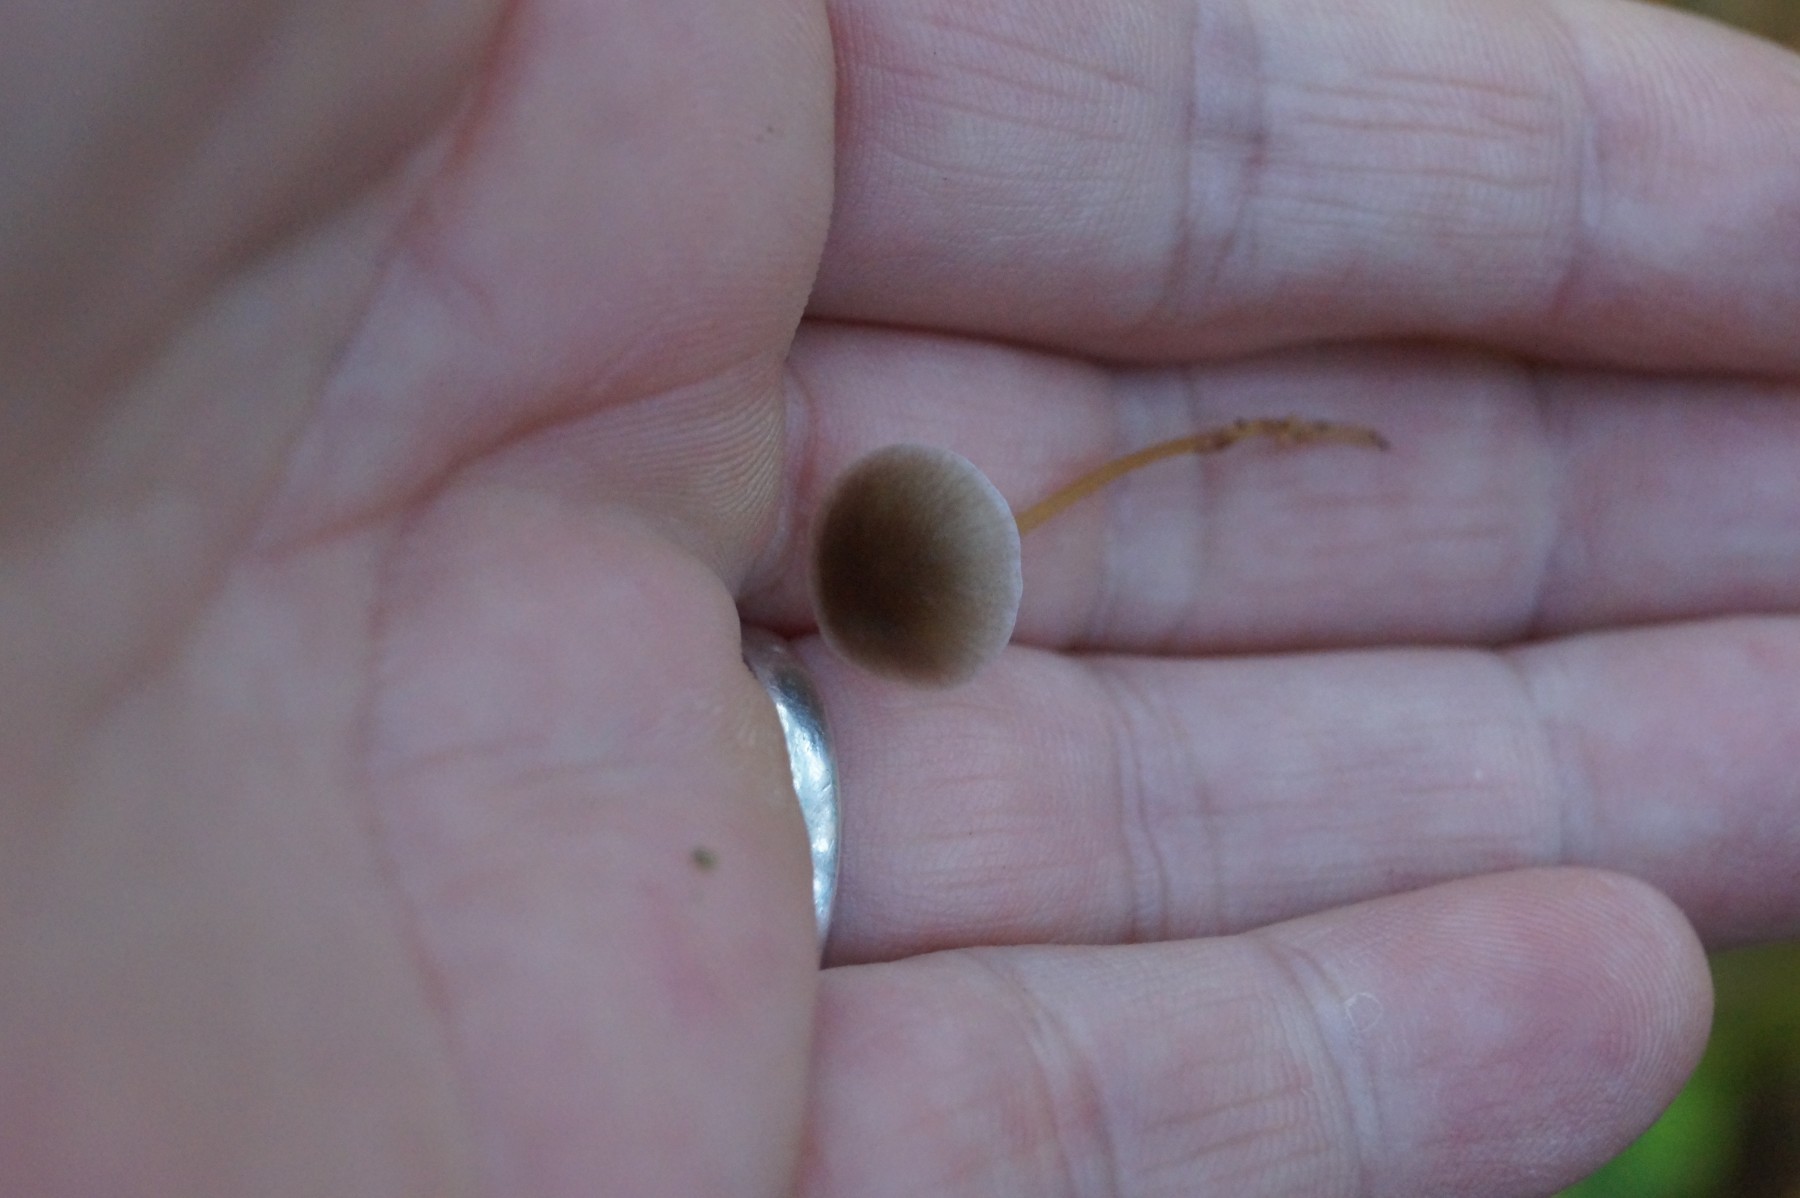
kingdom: Fungi
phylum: Basidiomycota
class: Agaricomycetes
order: Agaricales
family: Physalacriaceae
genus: Strobilurus
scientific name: Strobilurus esculentus
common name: gran-koglehat
